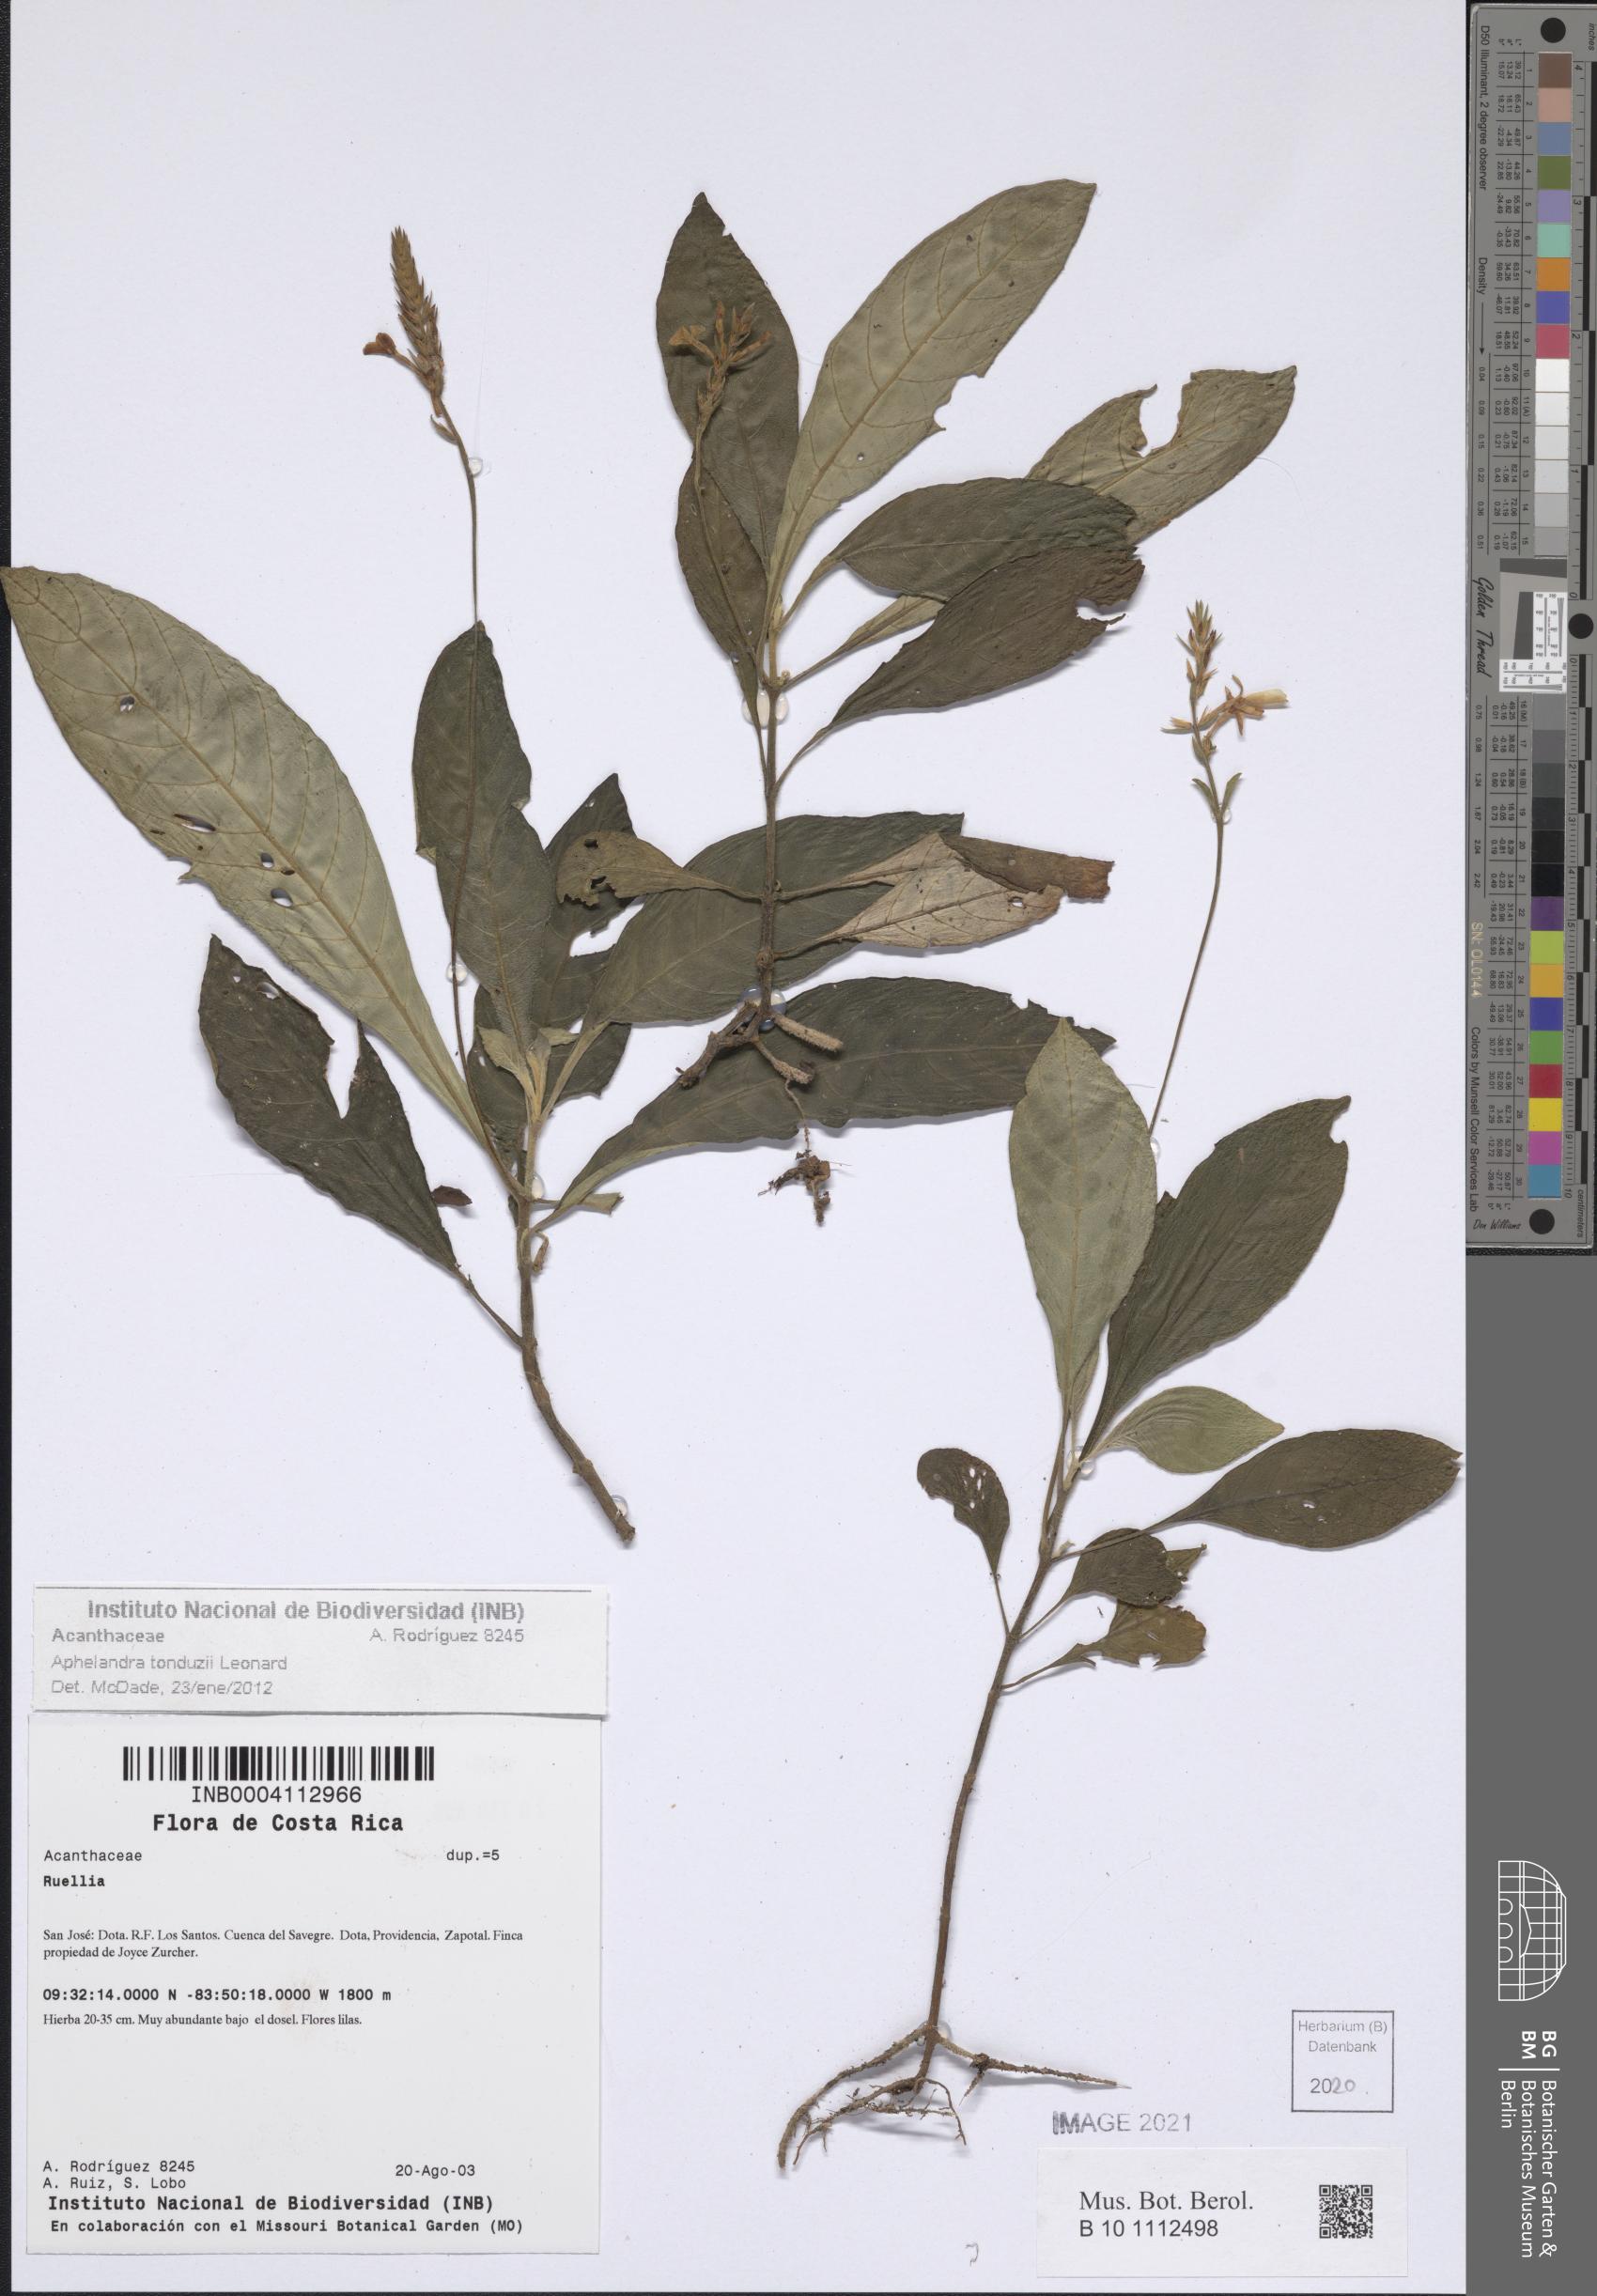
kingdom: Plantae
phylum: Tracheophyta
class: Magnoliopsida
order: Lamiales
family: Acanthaceae
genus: Aphelandra
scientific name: Aphelandra tonduzii
